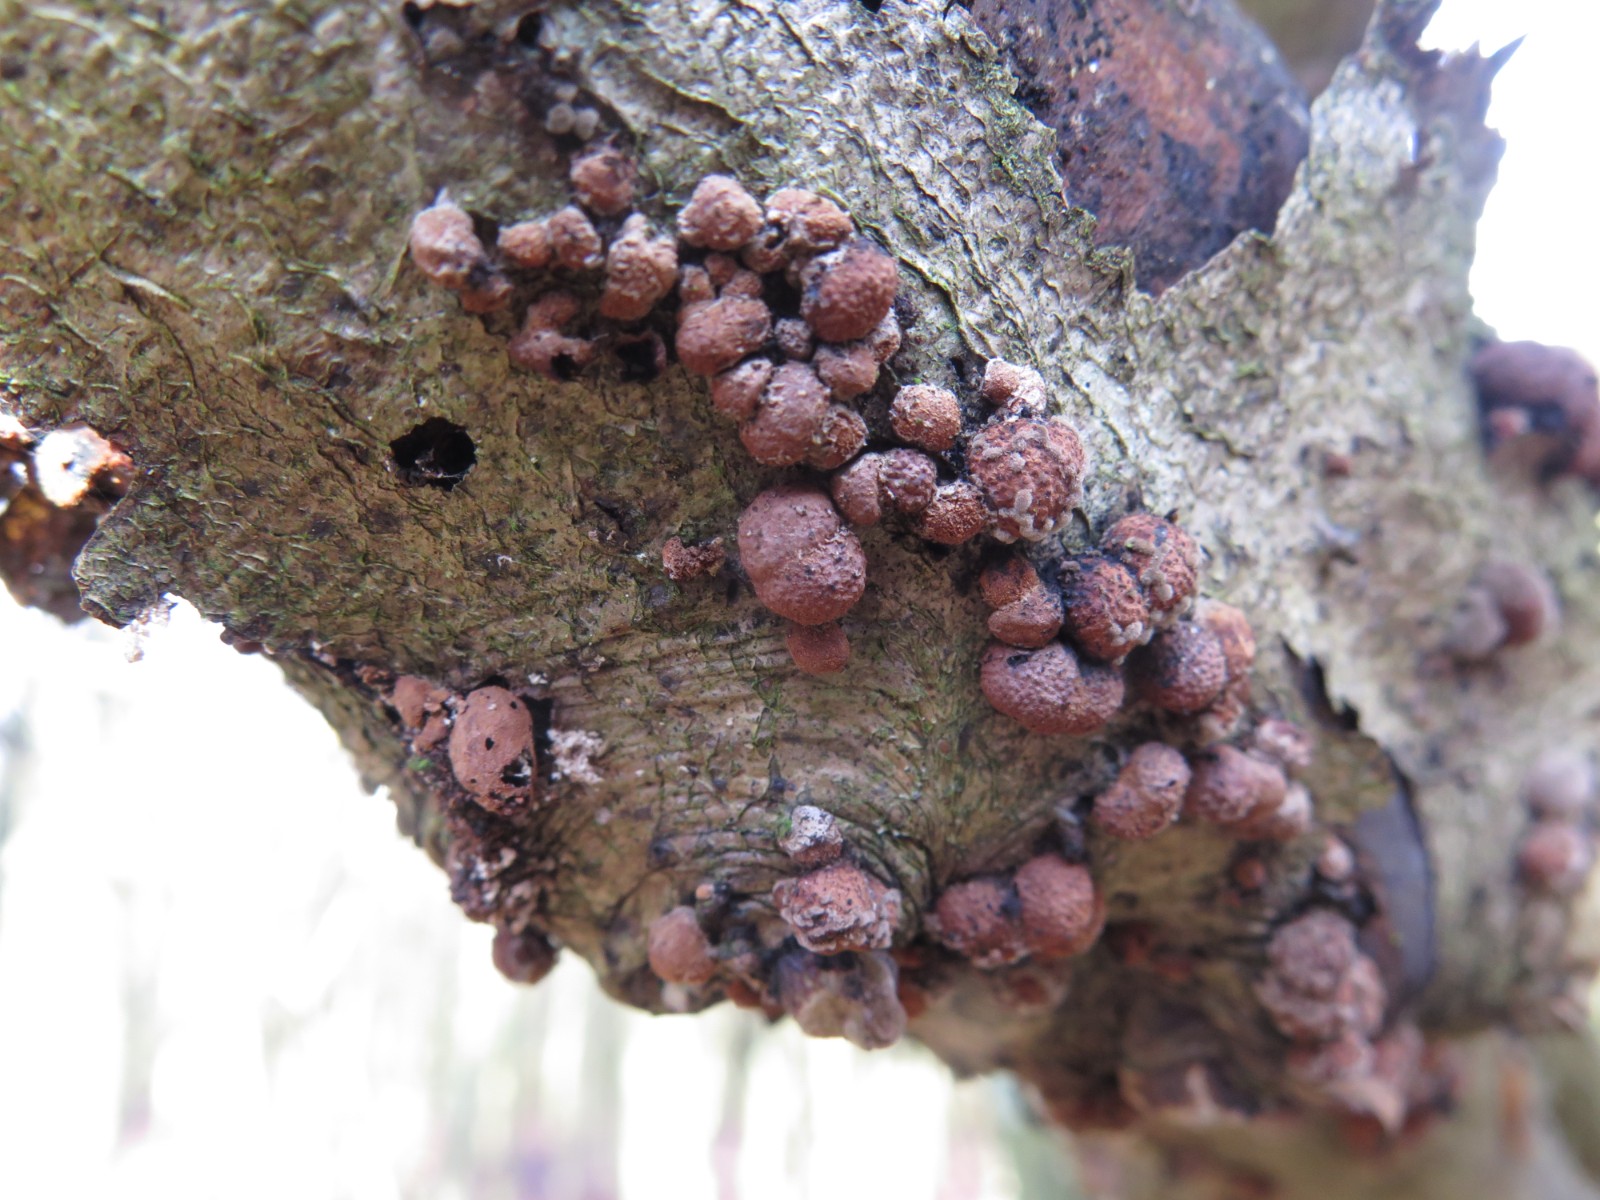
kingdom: Fungi
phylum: Ascomycota
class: Sordariomycetes
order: Xylariales
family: Hypoxylaceae
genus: Hypoxylon
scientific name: Hypoxylon fragiforme
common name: kuljordbær
